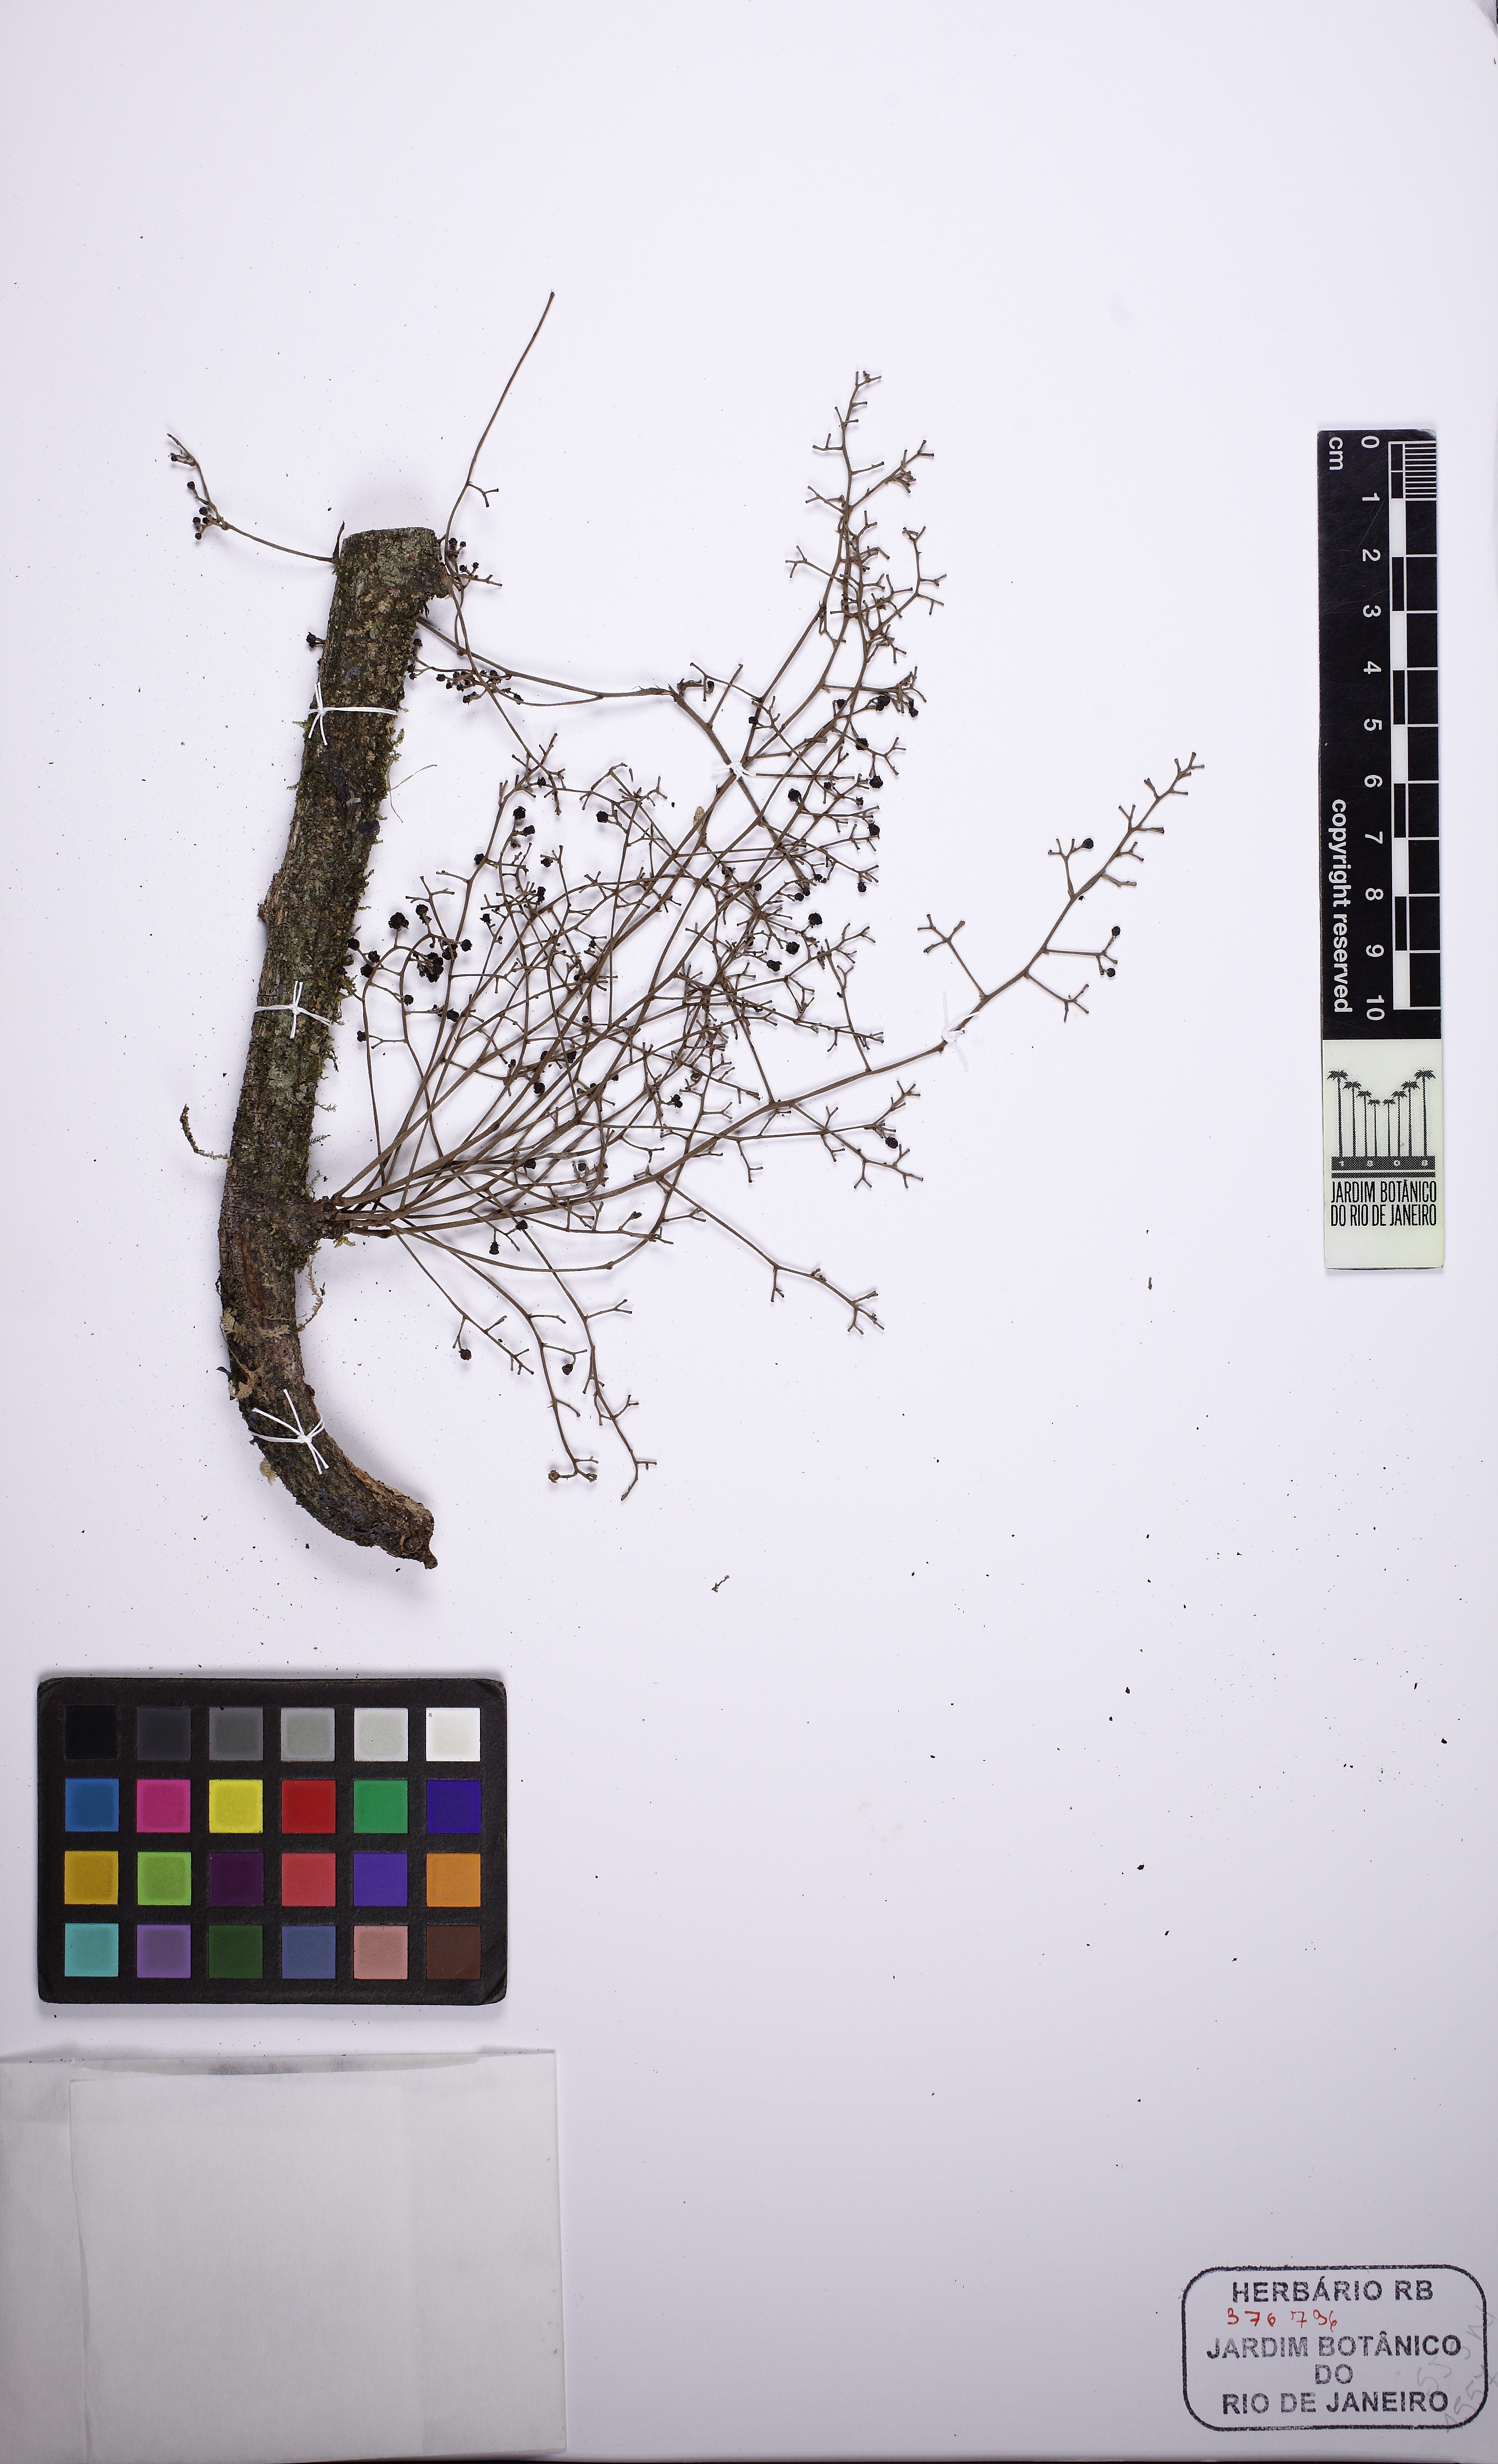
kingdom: Plantae
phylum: Tracheophyta
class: Magnoliopsida
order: Ranunculales
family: Menispermaceae
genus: Chondrodendron
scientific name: Chondrodendron platyphyllum
